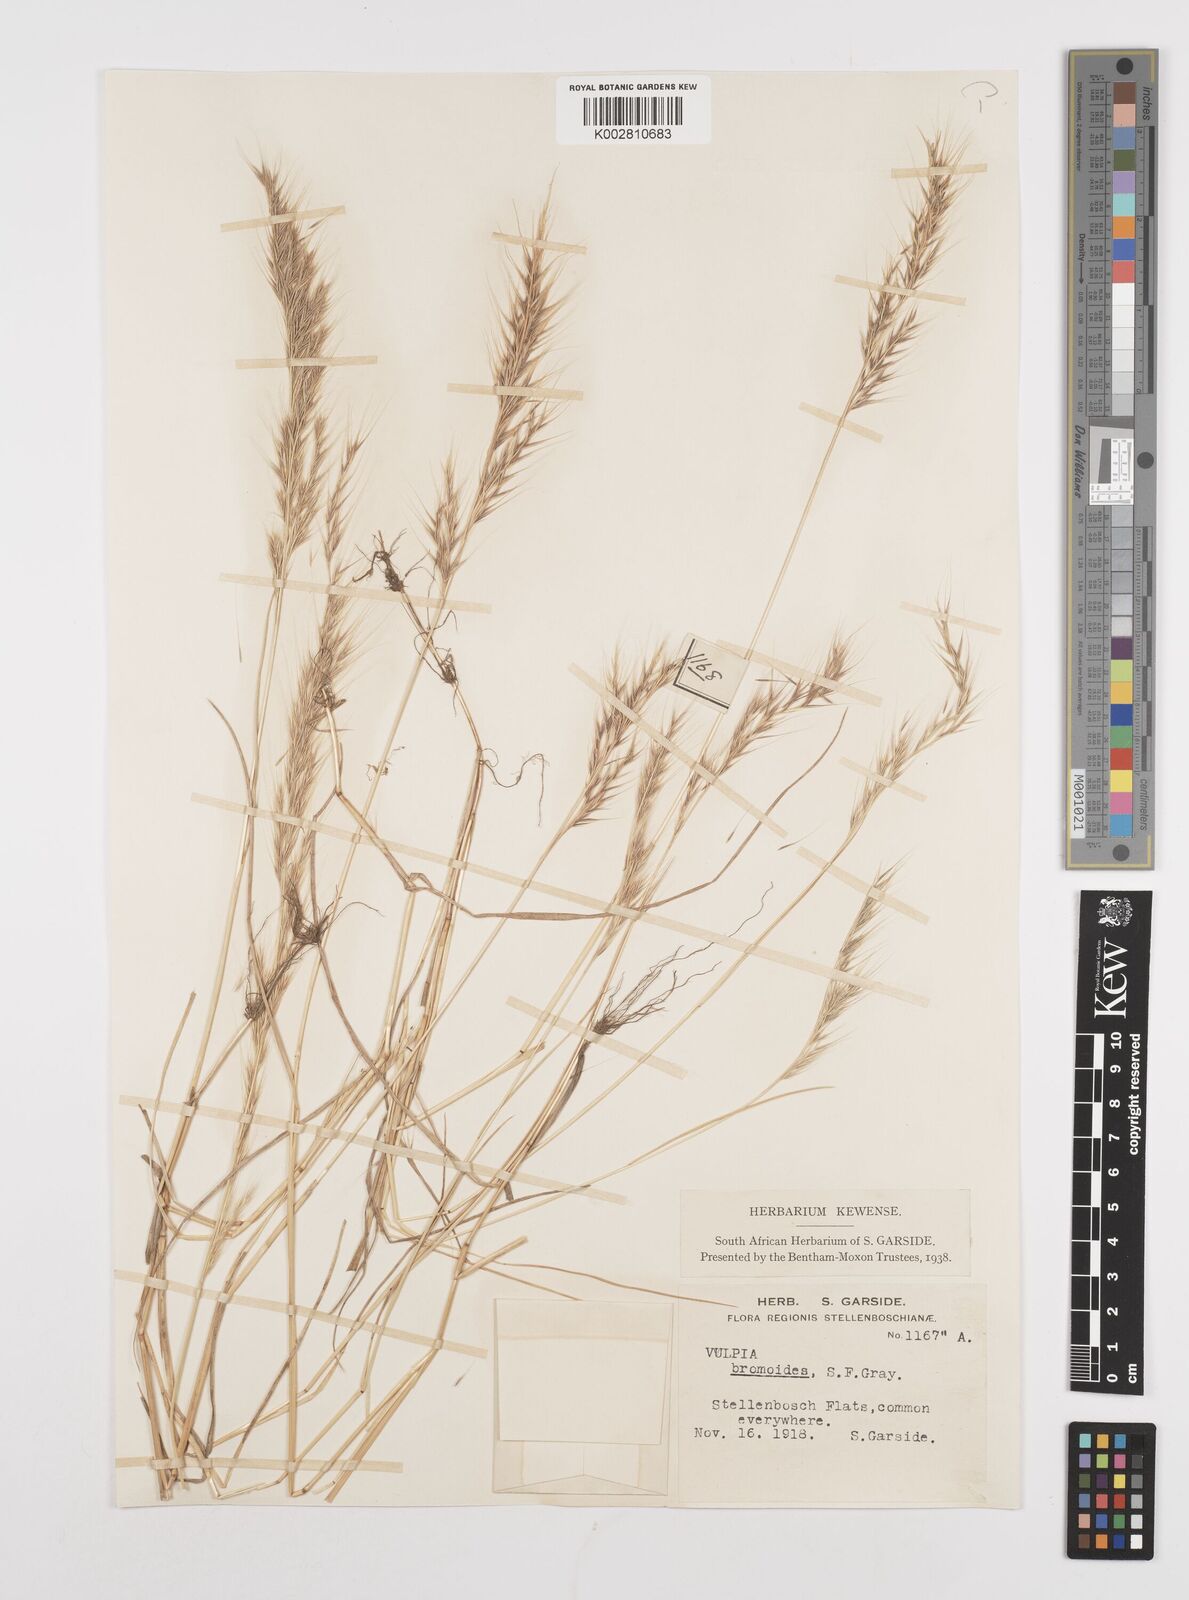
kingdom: Plantae
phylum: Tracheophyta
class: Liliopsida
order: Poales
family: Poaceae
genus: Festuca
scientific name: Festuca bromoides
